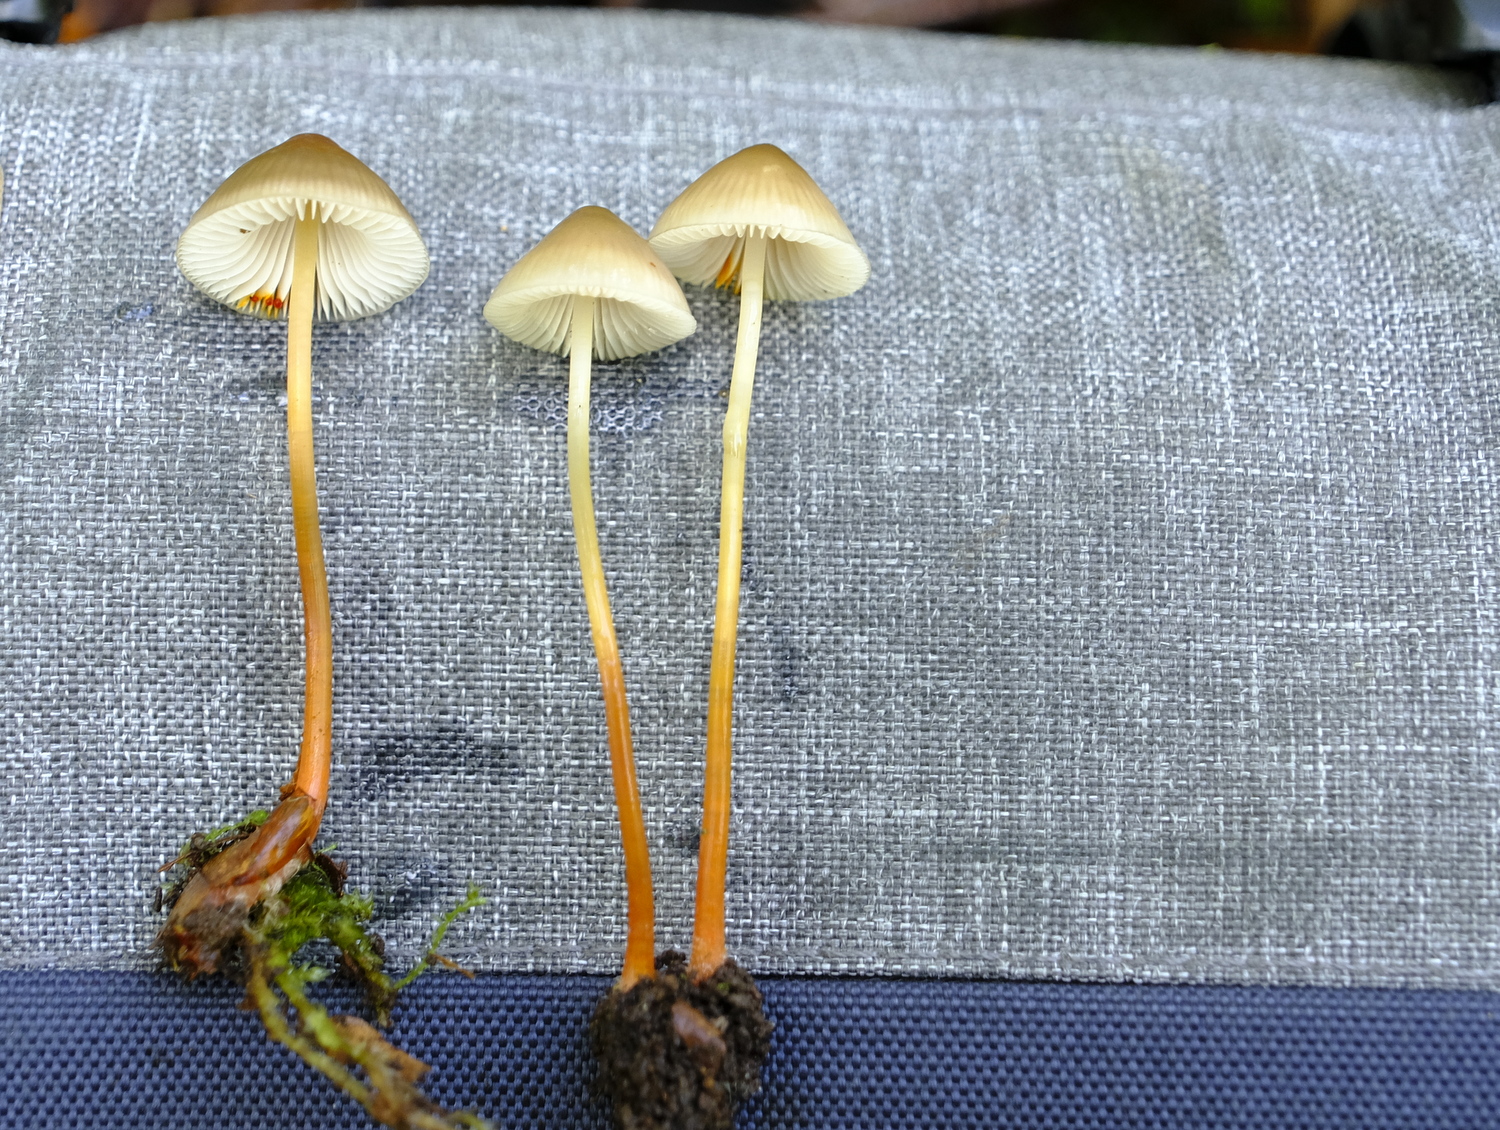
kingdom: Fungi
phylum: Basidiomycota
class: Agaricomycetes
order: Agaricales
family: Mycenaceae
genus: Mycena
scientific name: Mycena crocata
